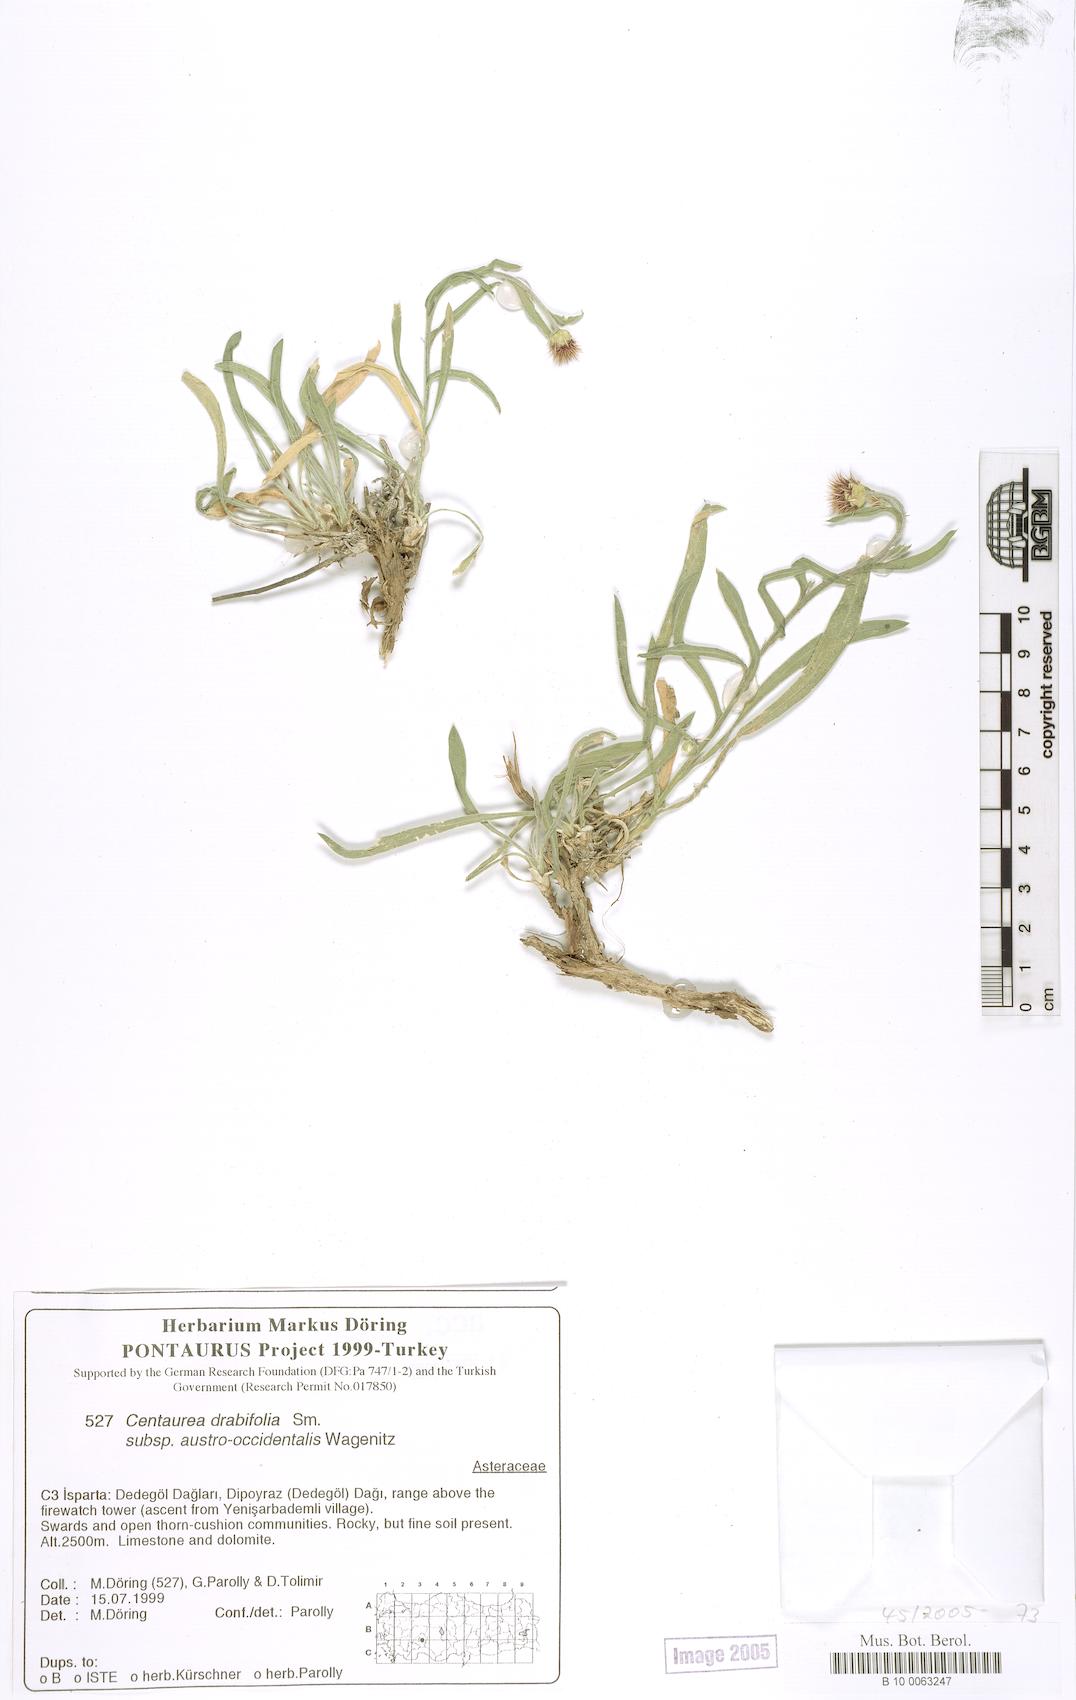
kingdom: Plantae
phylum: Tracheophyta
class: Magnoliopsida
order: Asterales
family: Asteraceae
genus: Centaurea
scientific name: Centaurea drabifolia
